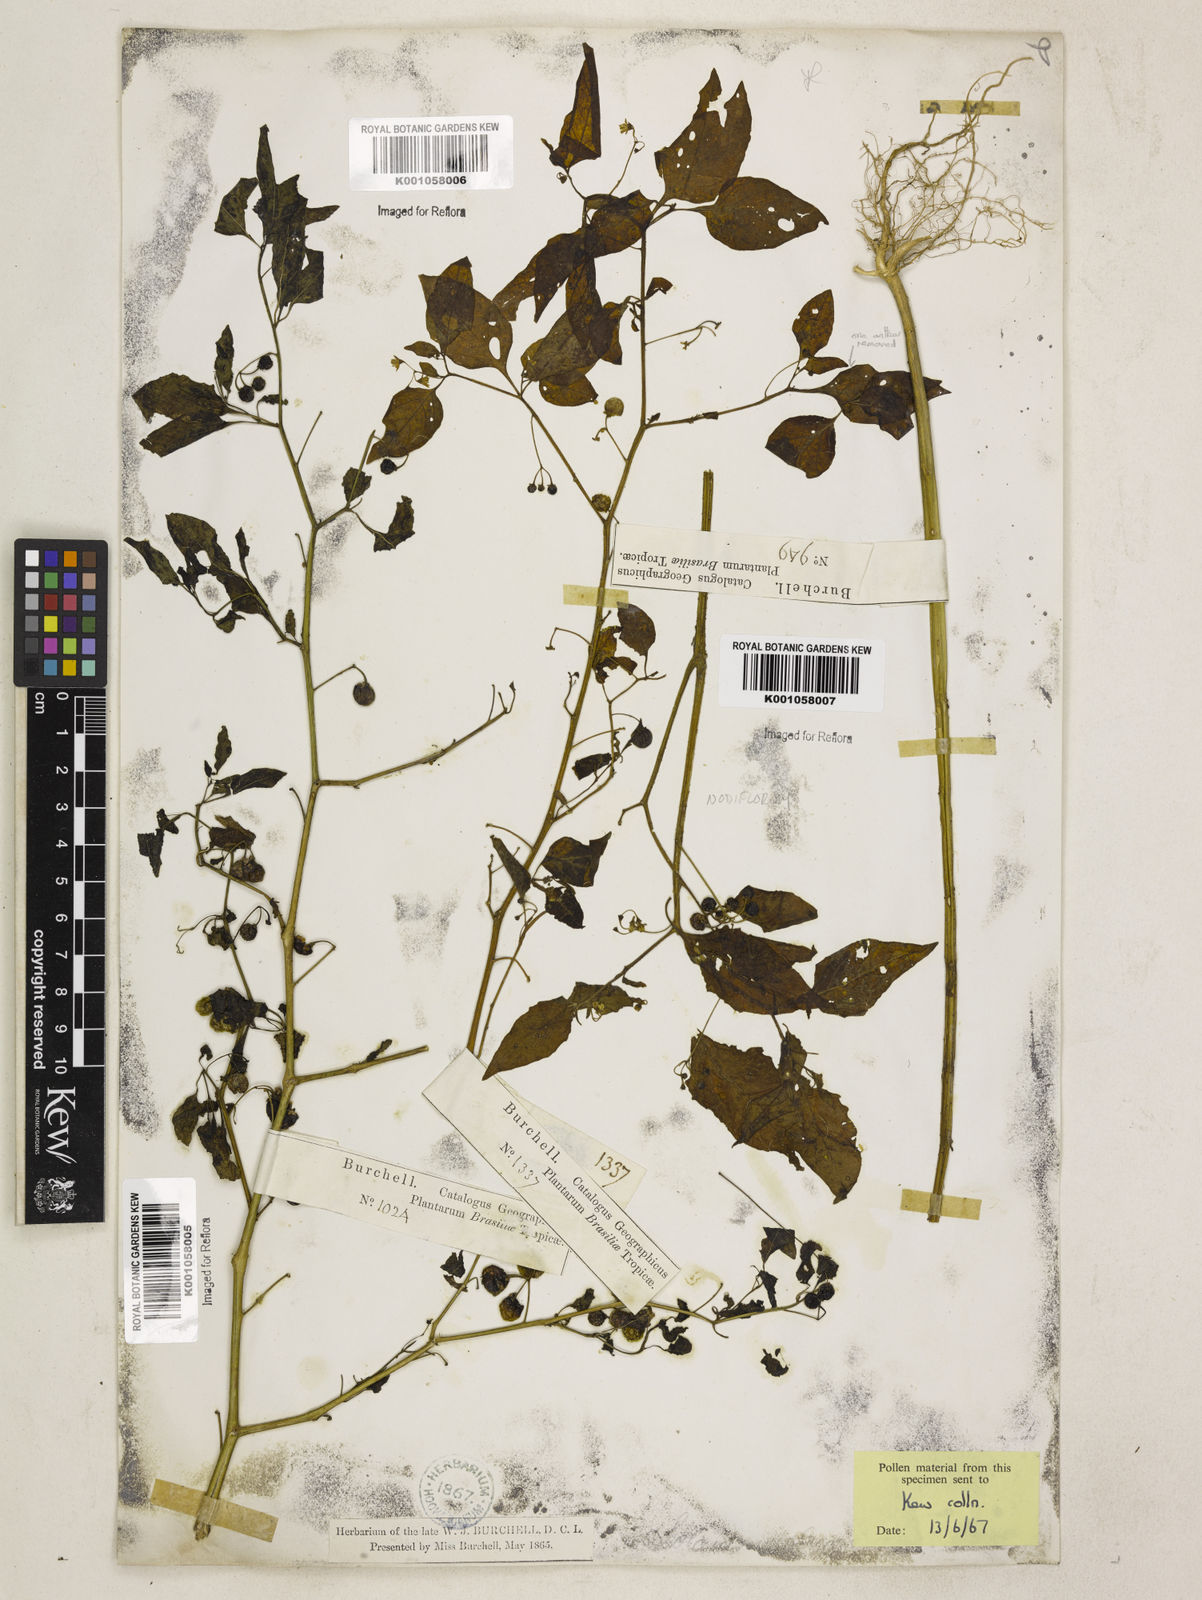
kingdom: Plantae
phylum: Tracheophyta
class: Magnoliopsida
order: Solanales
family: Solanaceae
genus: Solanum
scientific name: Solanum americanum
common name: American black nightshade
